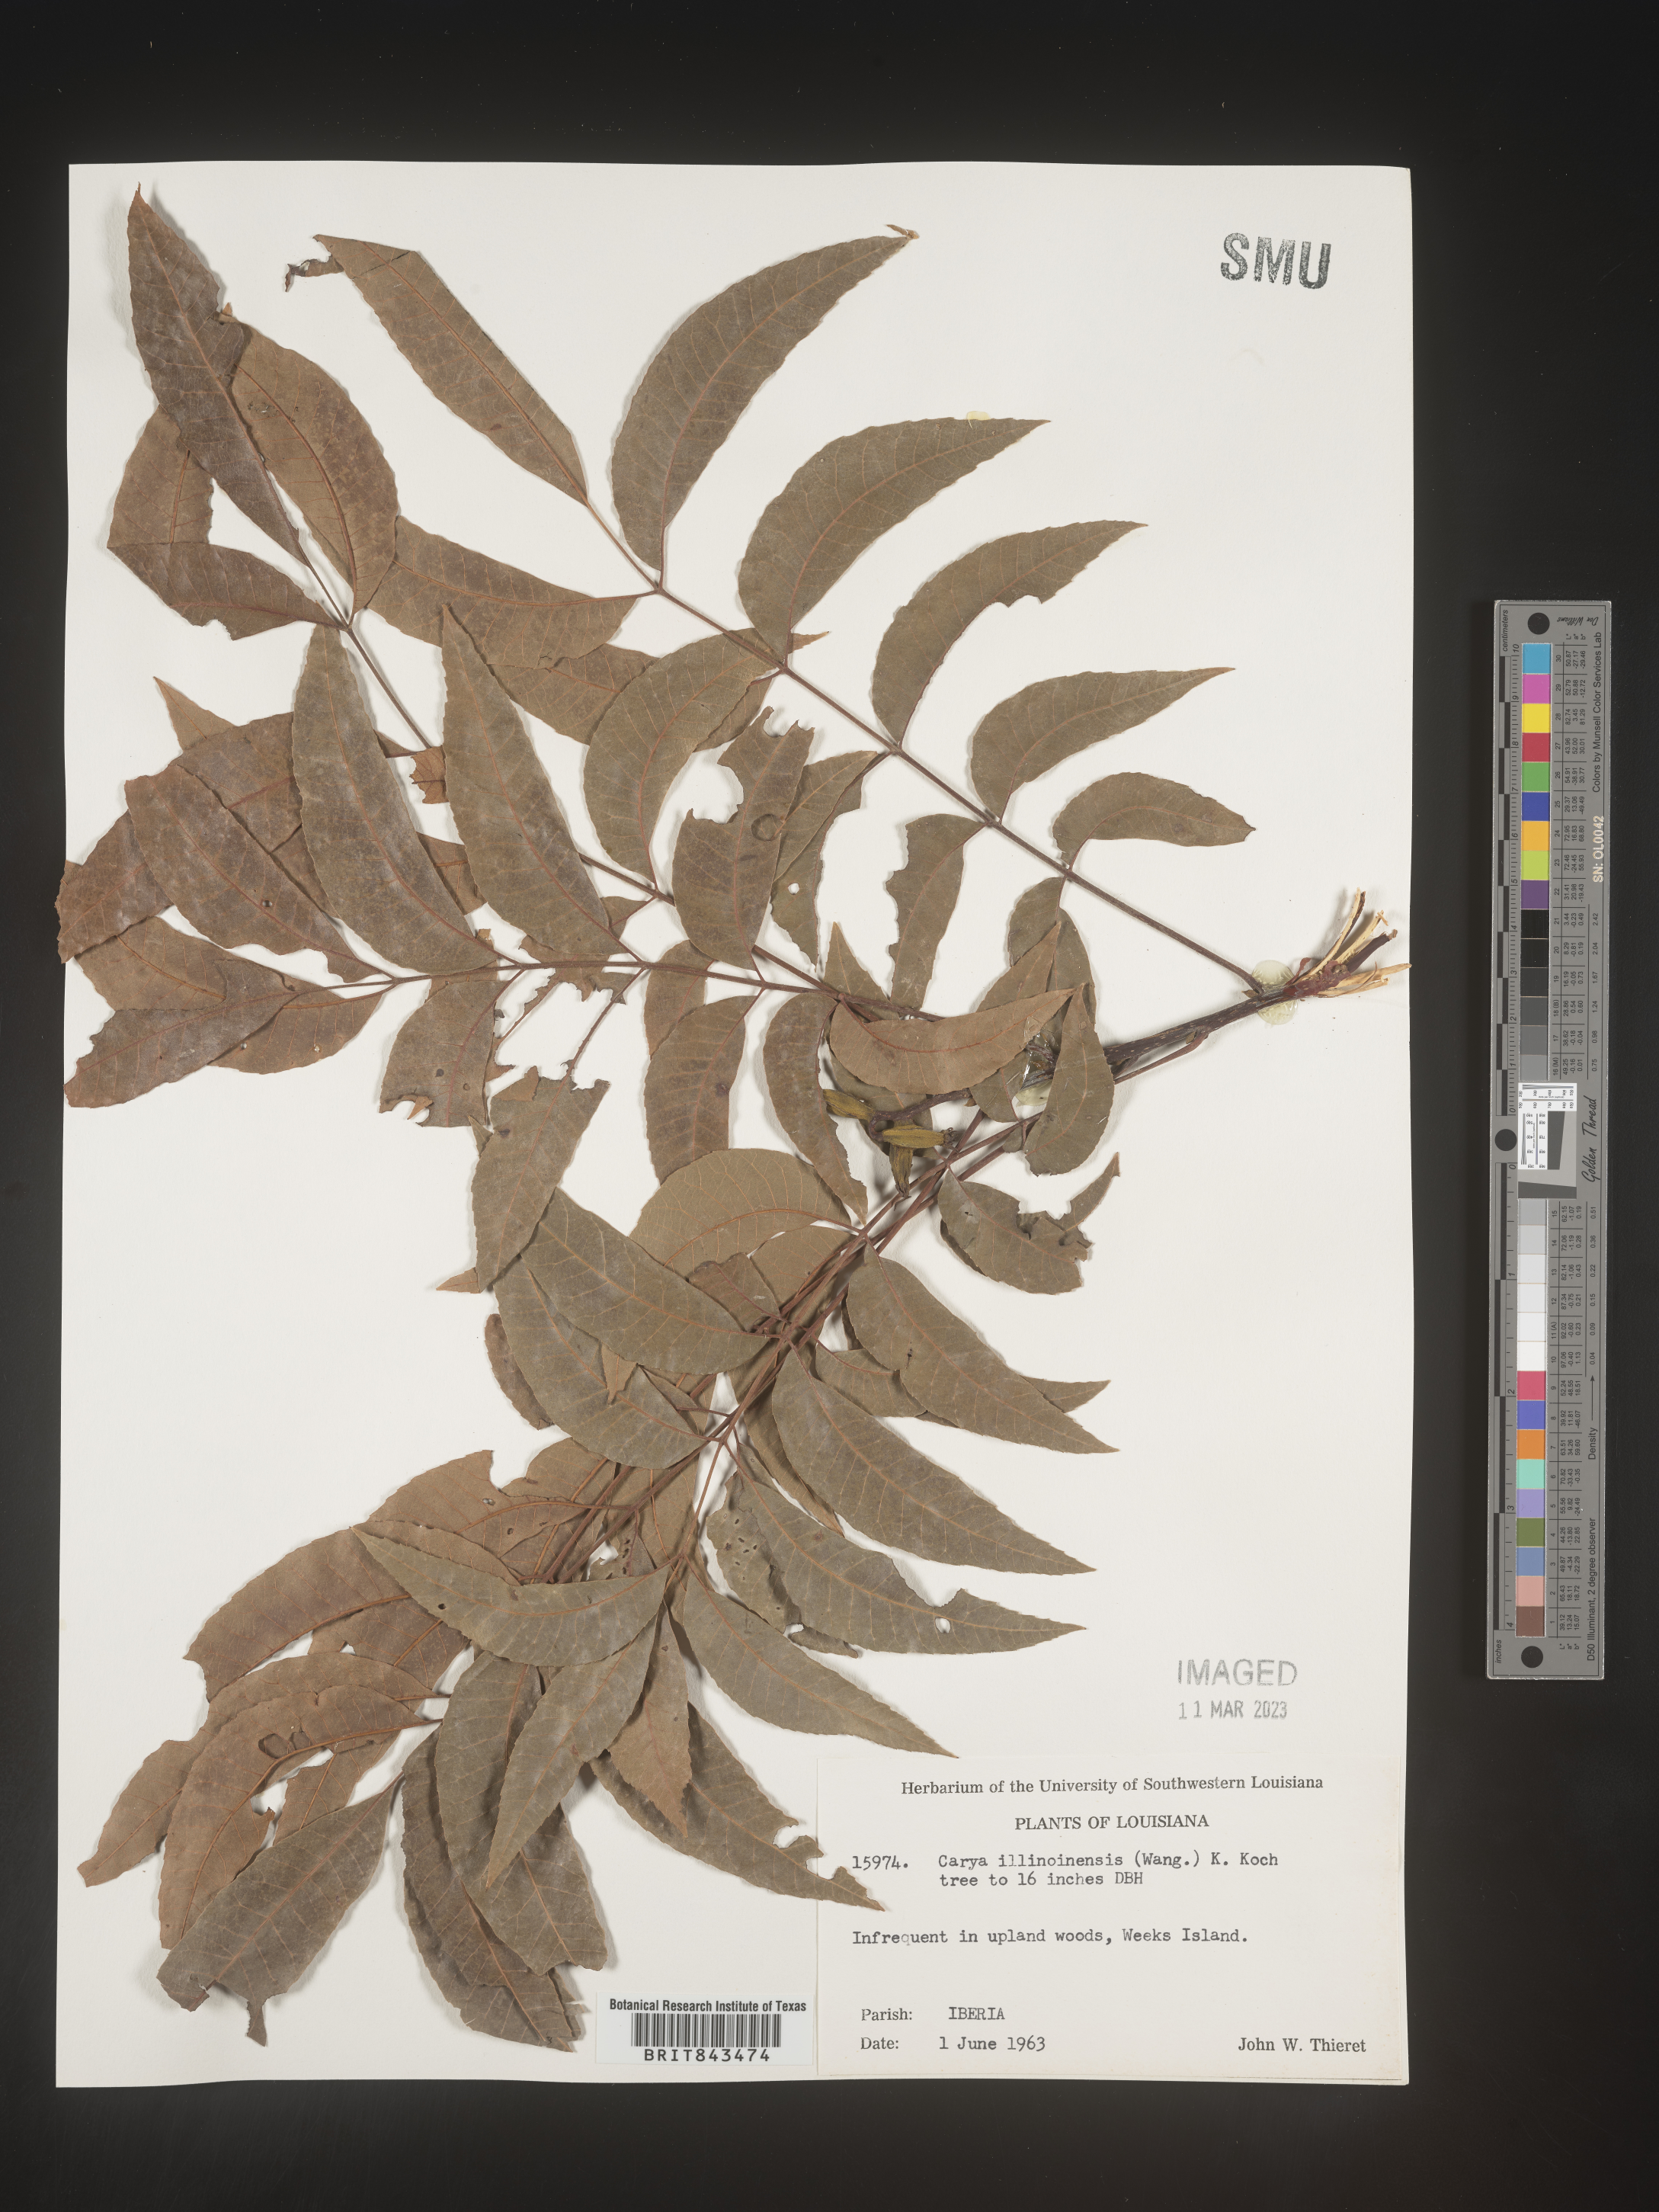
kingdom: Plantae
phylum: Tracheophyta
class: Magnoliopsida
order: Fagales
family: Juglandaceae
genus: Carya
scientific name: Carya illinoinensis
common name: Pecan
